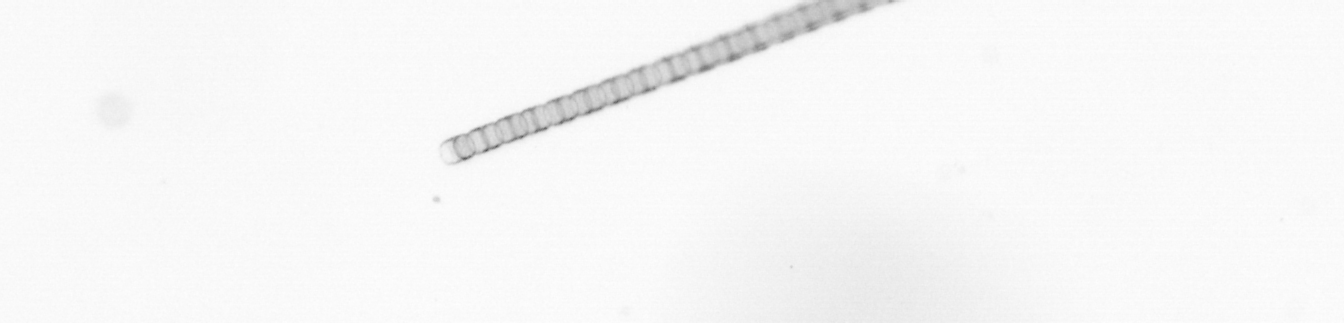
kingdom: Chromista
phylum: Ochrophyta
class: Bacillariophyceae
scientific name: Bacillariophyceae
